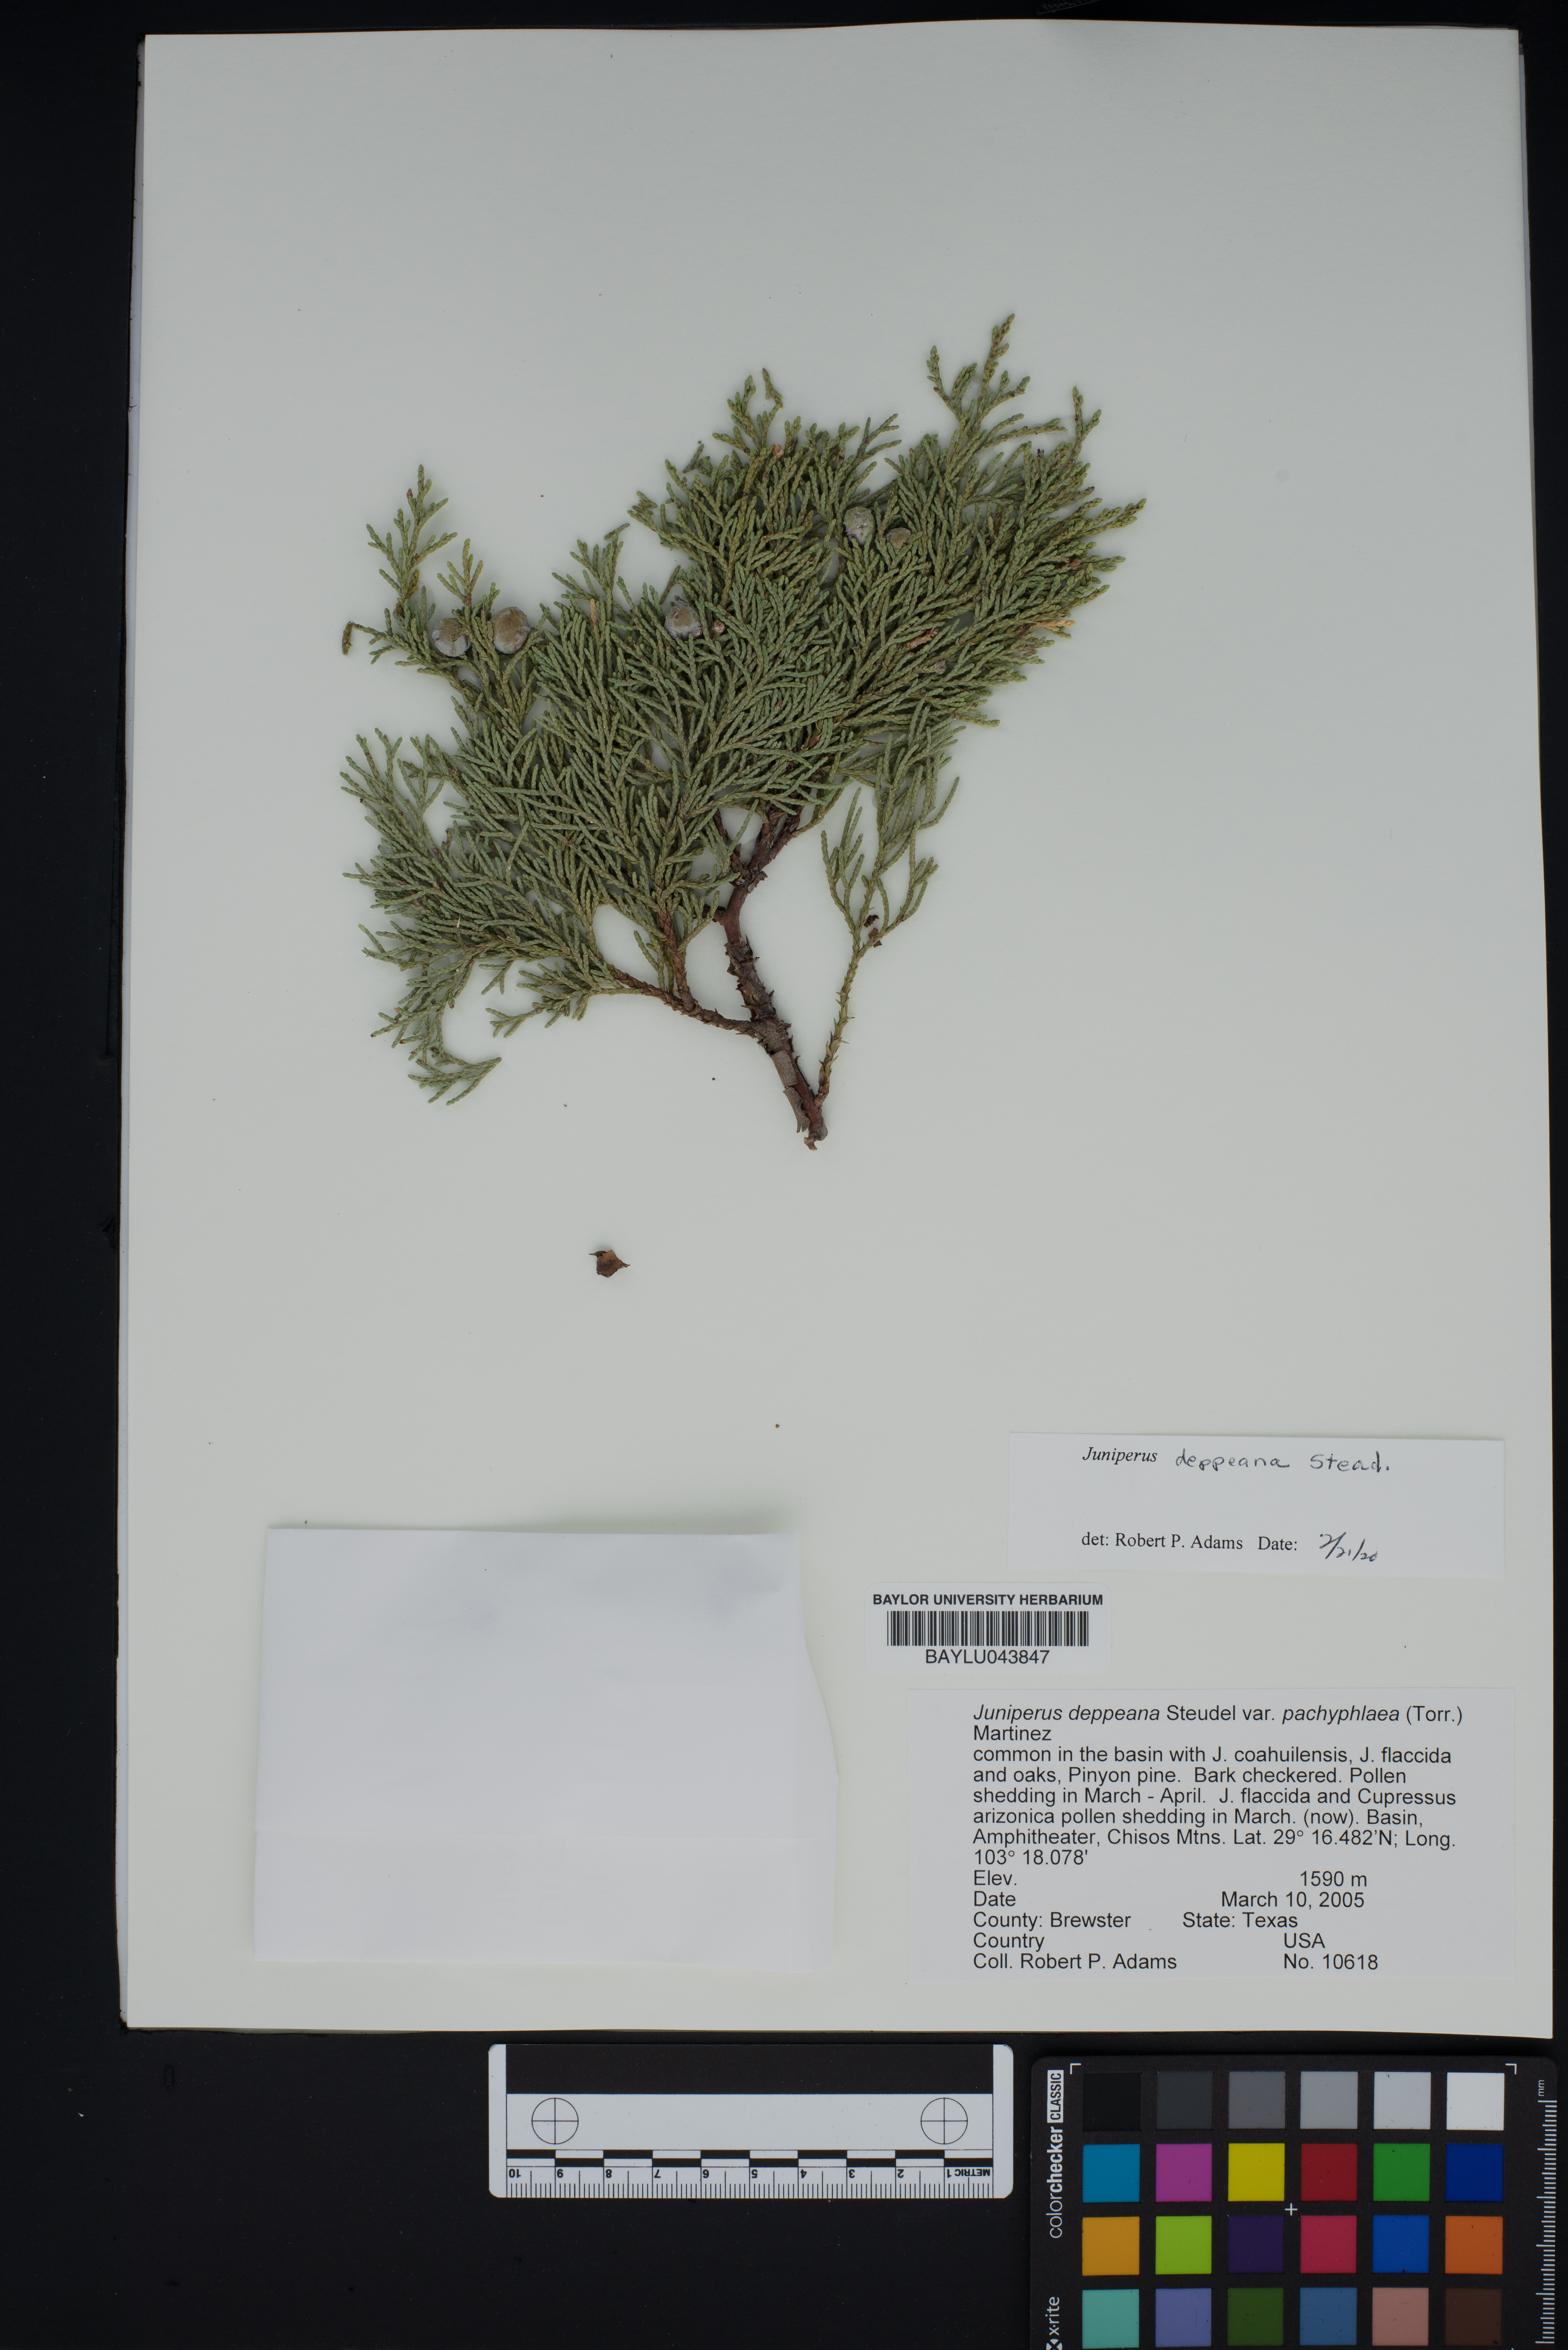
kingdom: Plantae
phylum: Tracheophyta
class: Pinopsida
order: Pinales
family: Cupressaceae
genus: Juniperus
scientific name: Juniperus deppeana
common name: Alligator juniper
